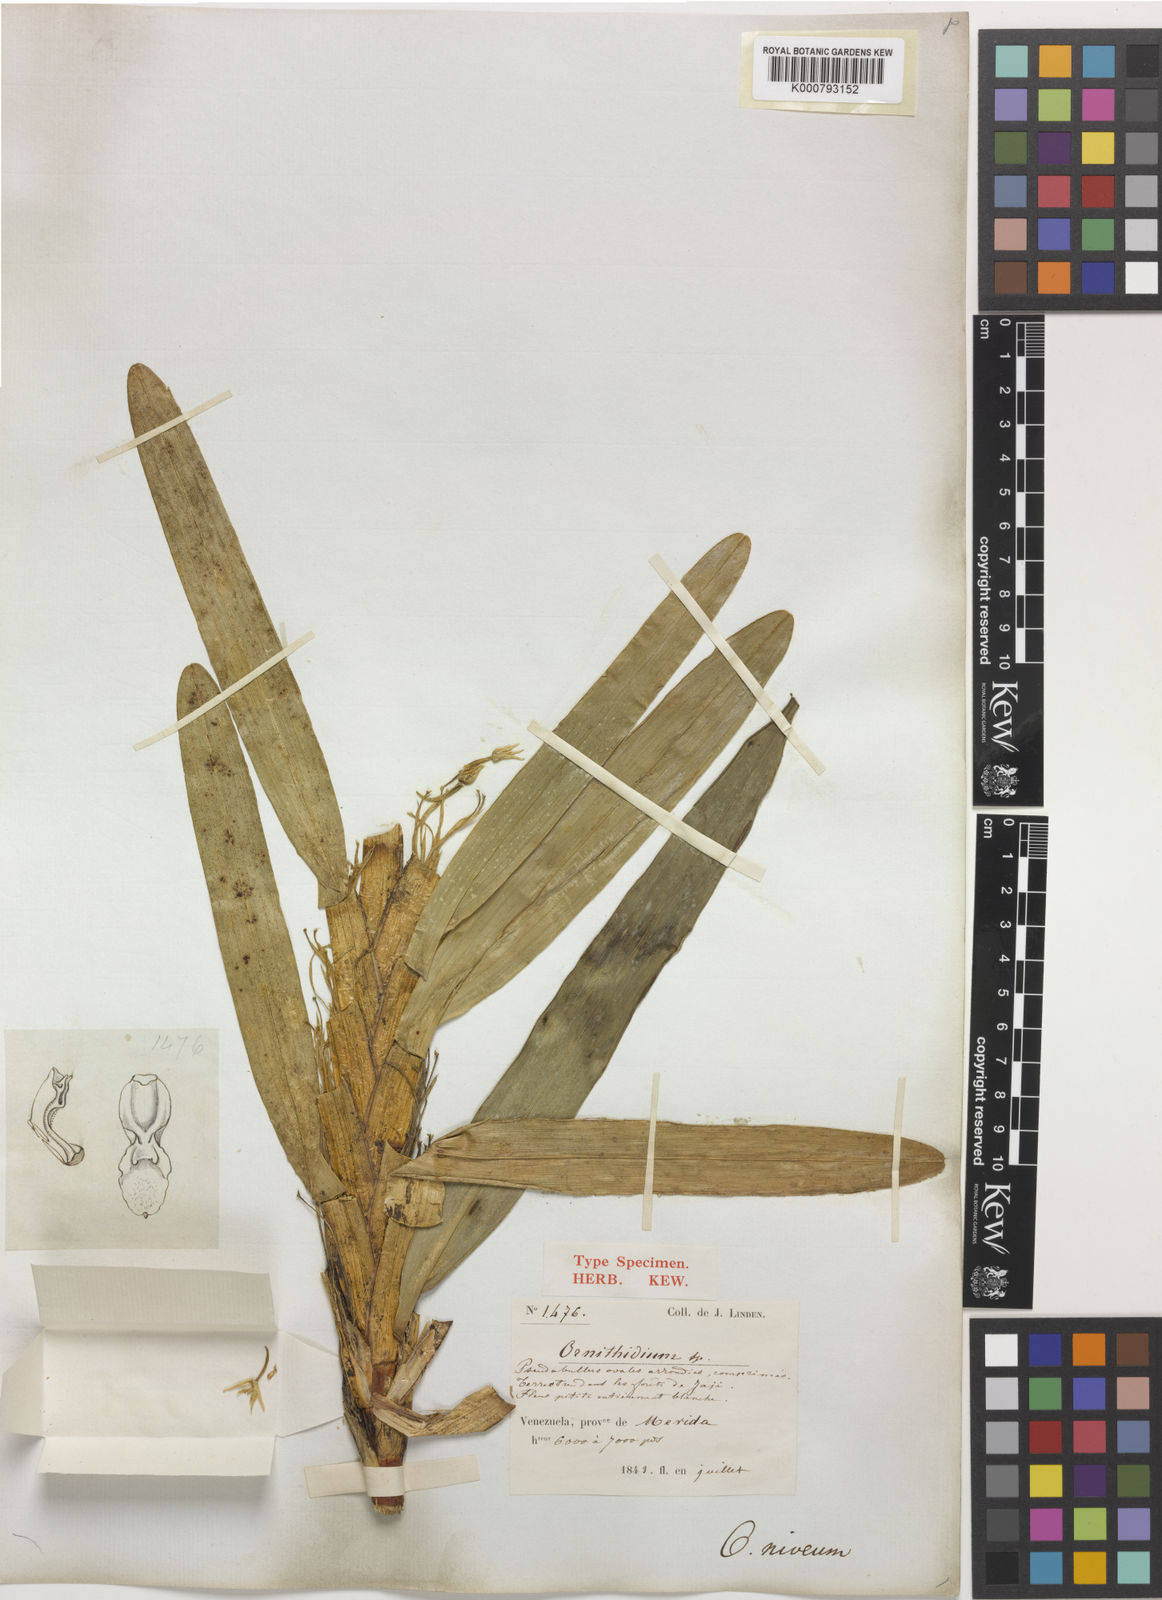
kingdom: Plantae
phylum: Tracheophyta
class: Liliopsida
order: Asparagales
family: Orchidaceae
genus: Maxillaria
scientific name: Maxillaria nivea
